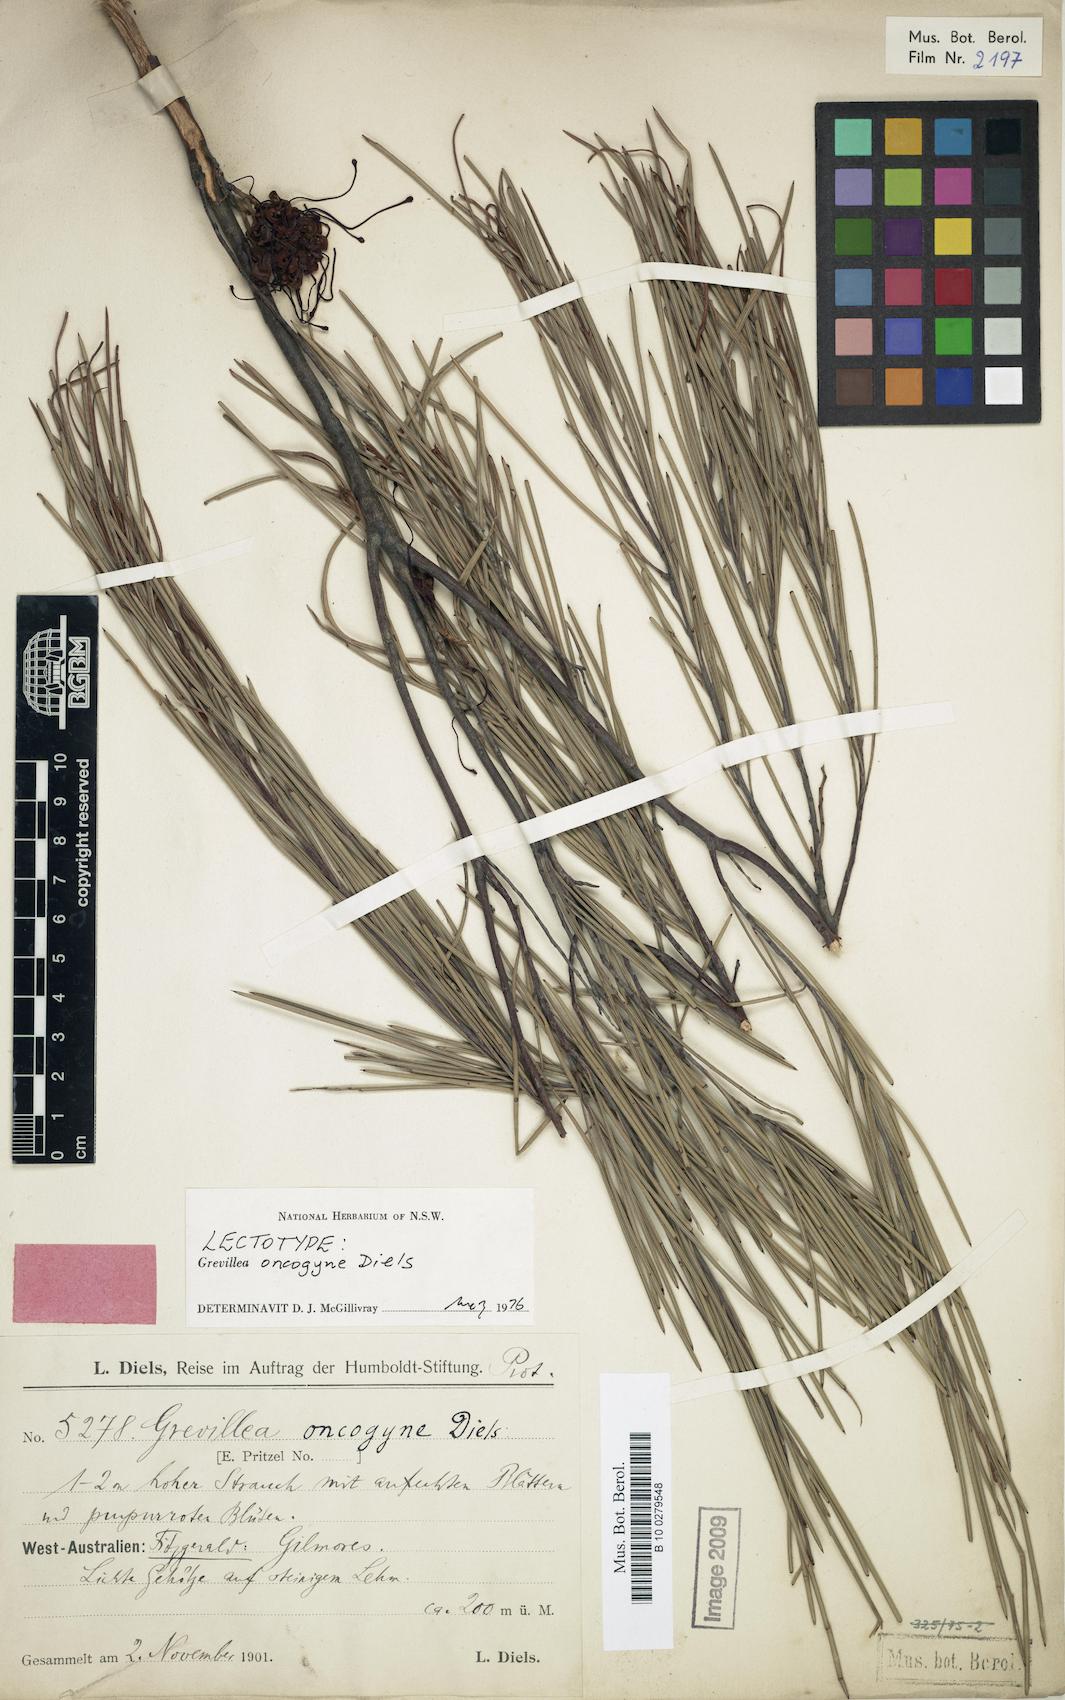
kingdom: Plantae
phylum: Tracheophyta
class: Magnoliopsida
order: Proteales
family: Proteaceae
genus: Grevillea
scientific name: Grevillea oncogyne
